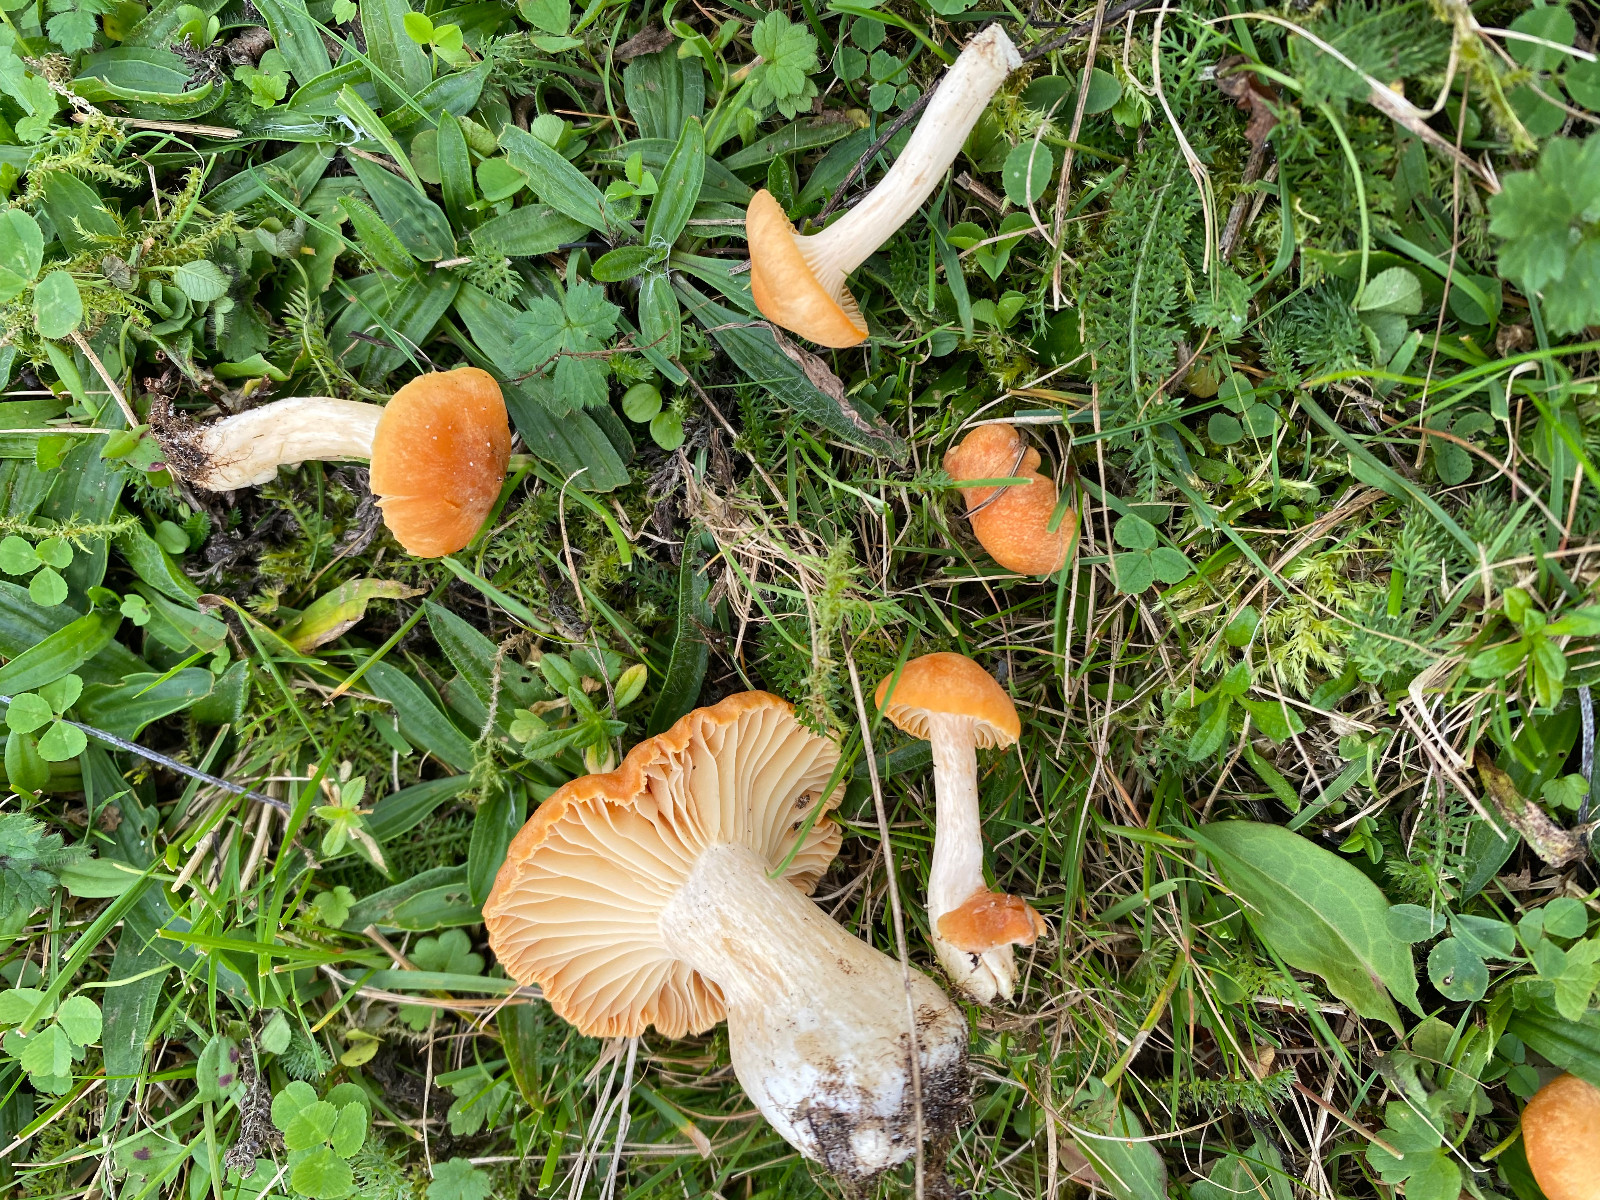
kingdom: Fungi
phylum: Basidiomycota
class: Agaricomycetes
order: Agaricales
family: Hygrophoraceae
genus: Cuphophyllus
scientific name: Cuphophyllus pratensis
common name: eng-vokshat
